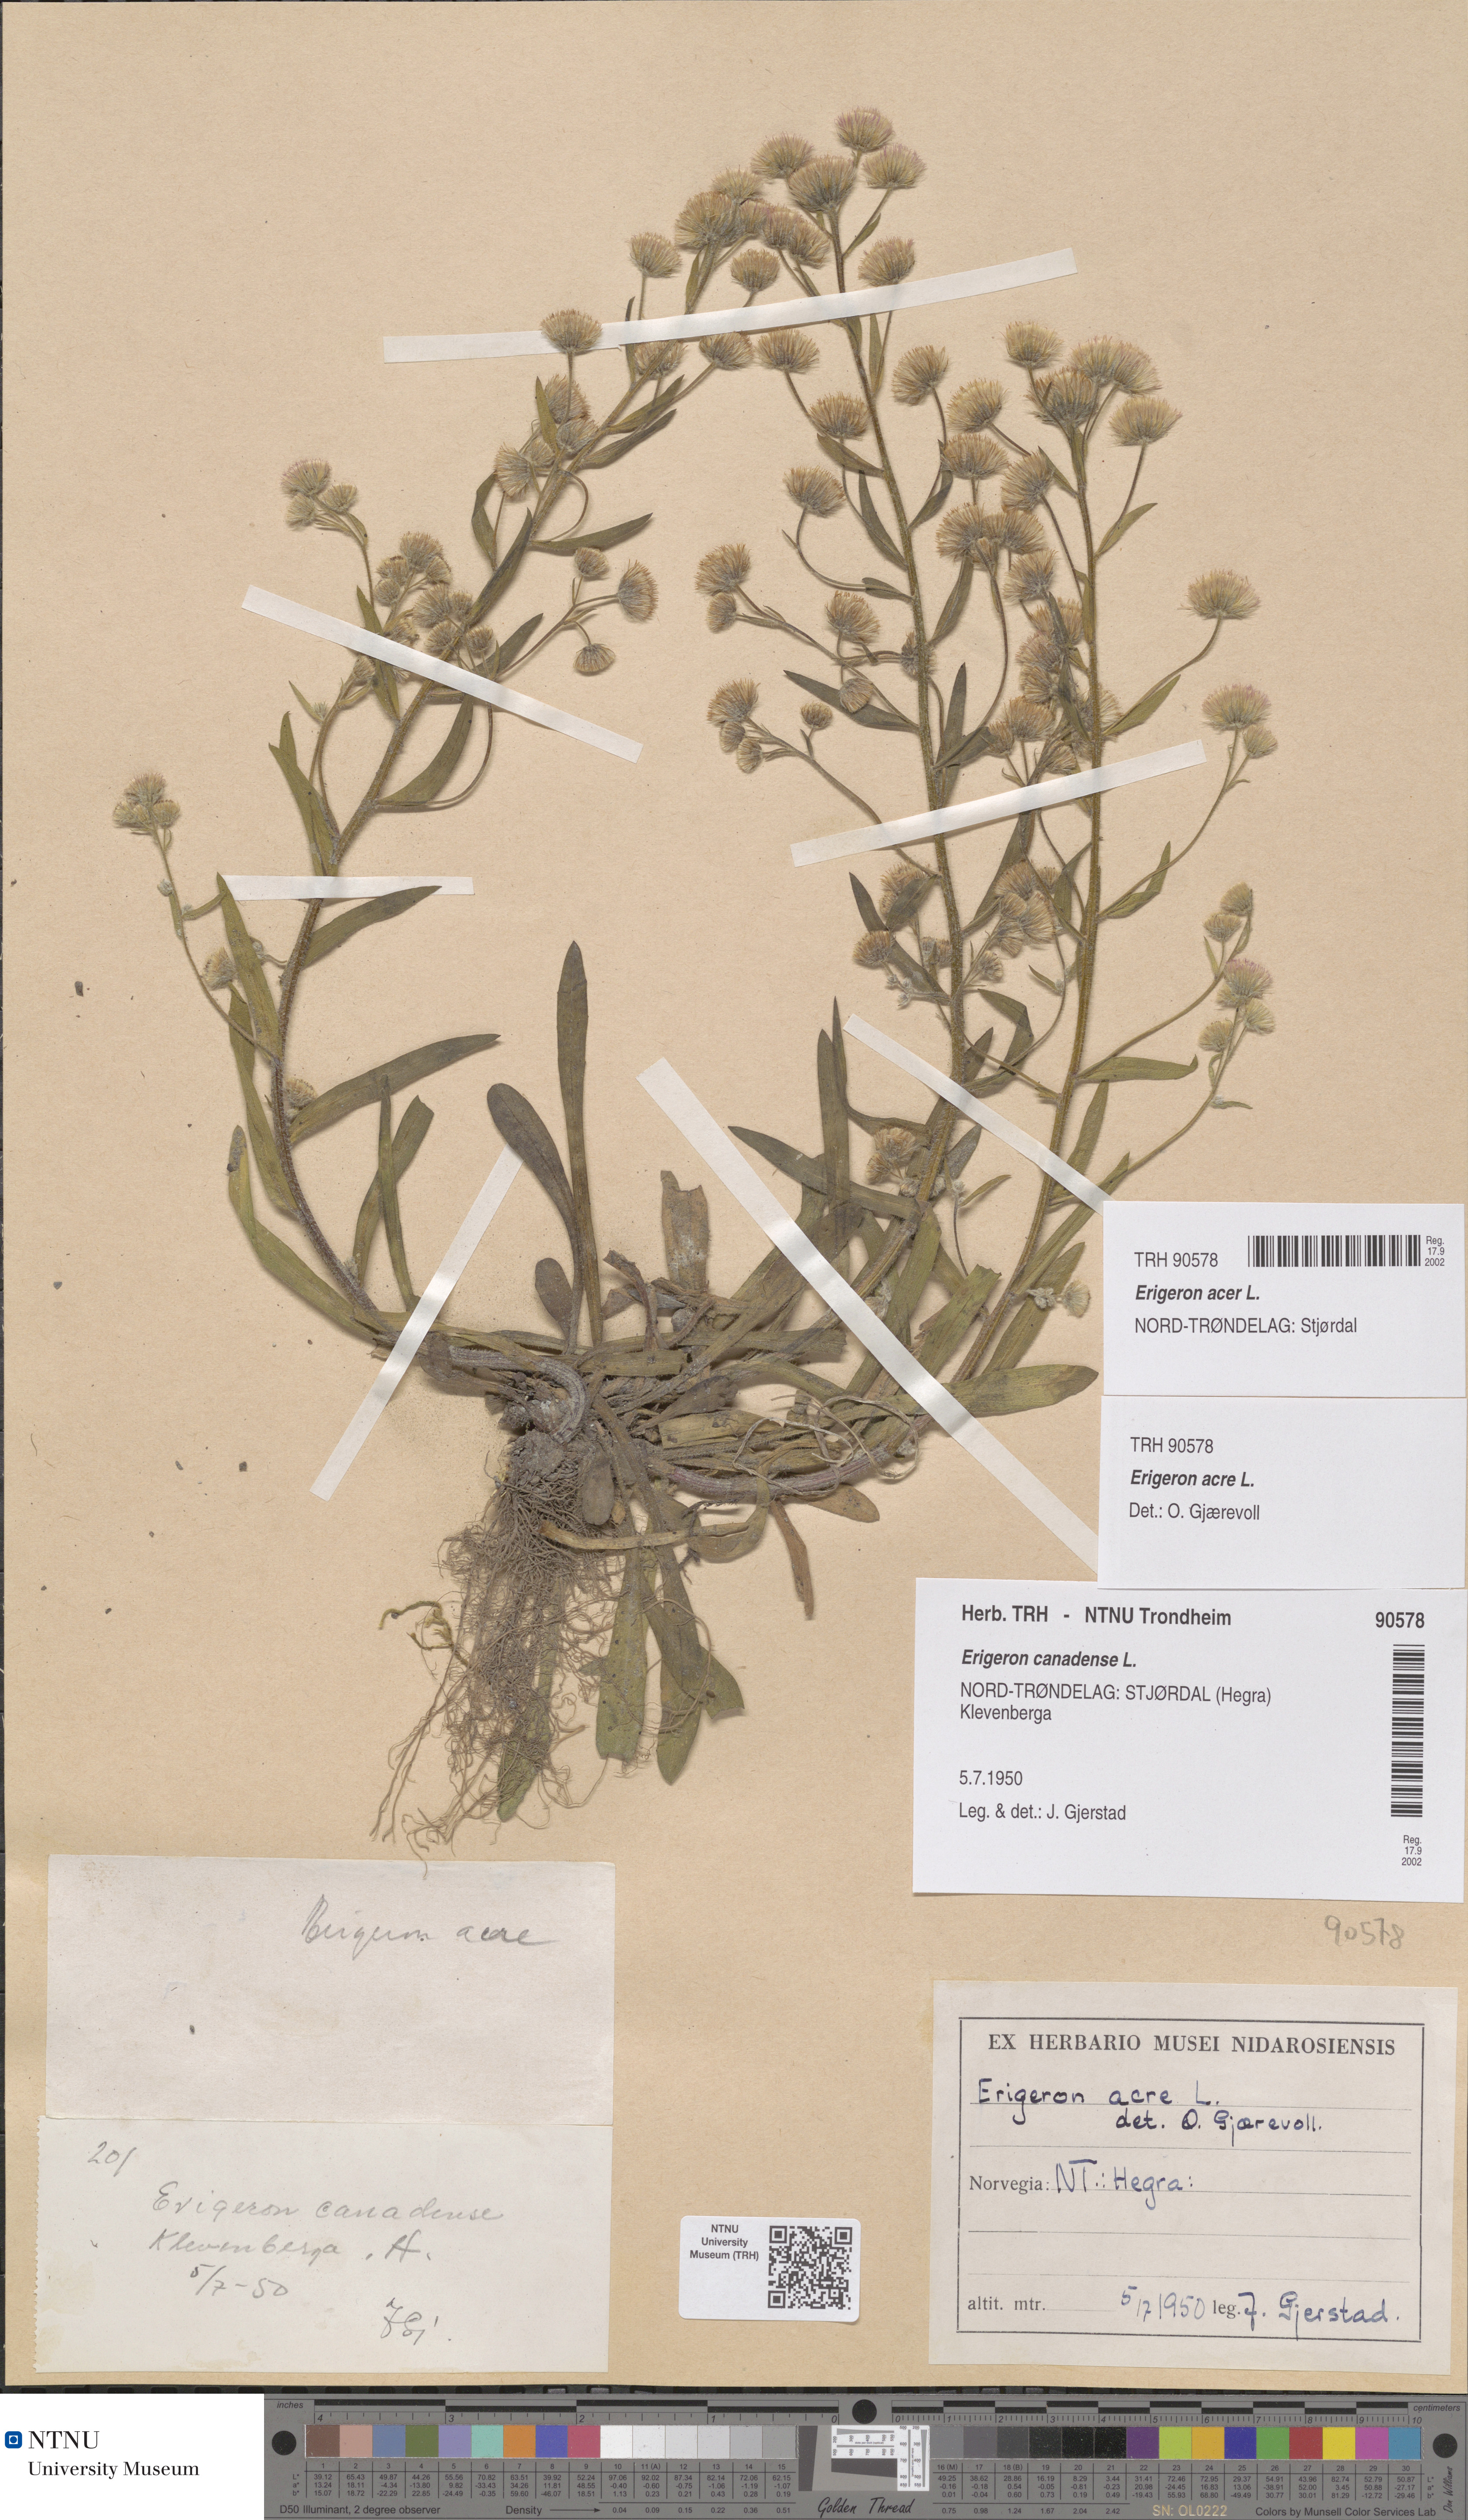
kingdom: Plantae
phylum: Tracheophyta
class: Magnoliopsida
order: Asterales
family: Asteraceae
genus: Erigeron
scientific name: Erigeron acris
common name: Blue fleabane
